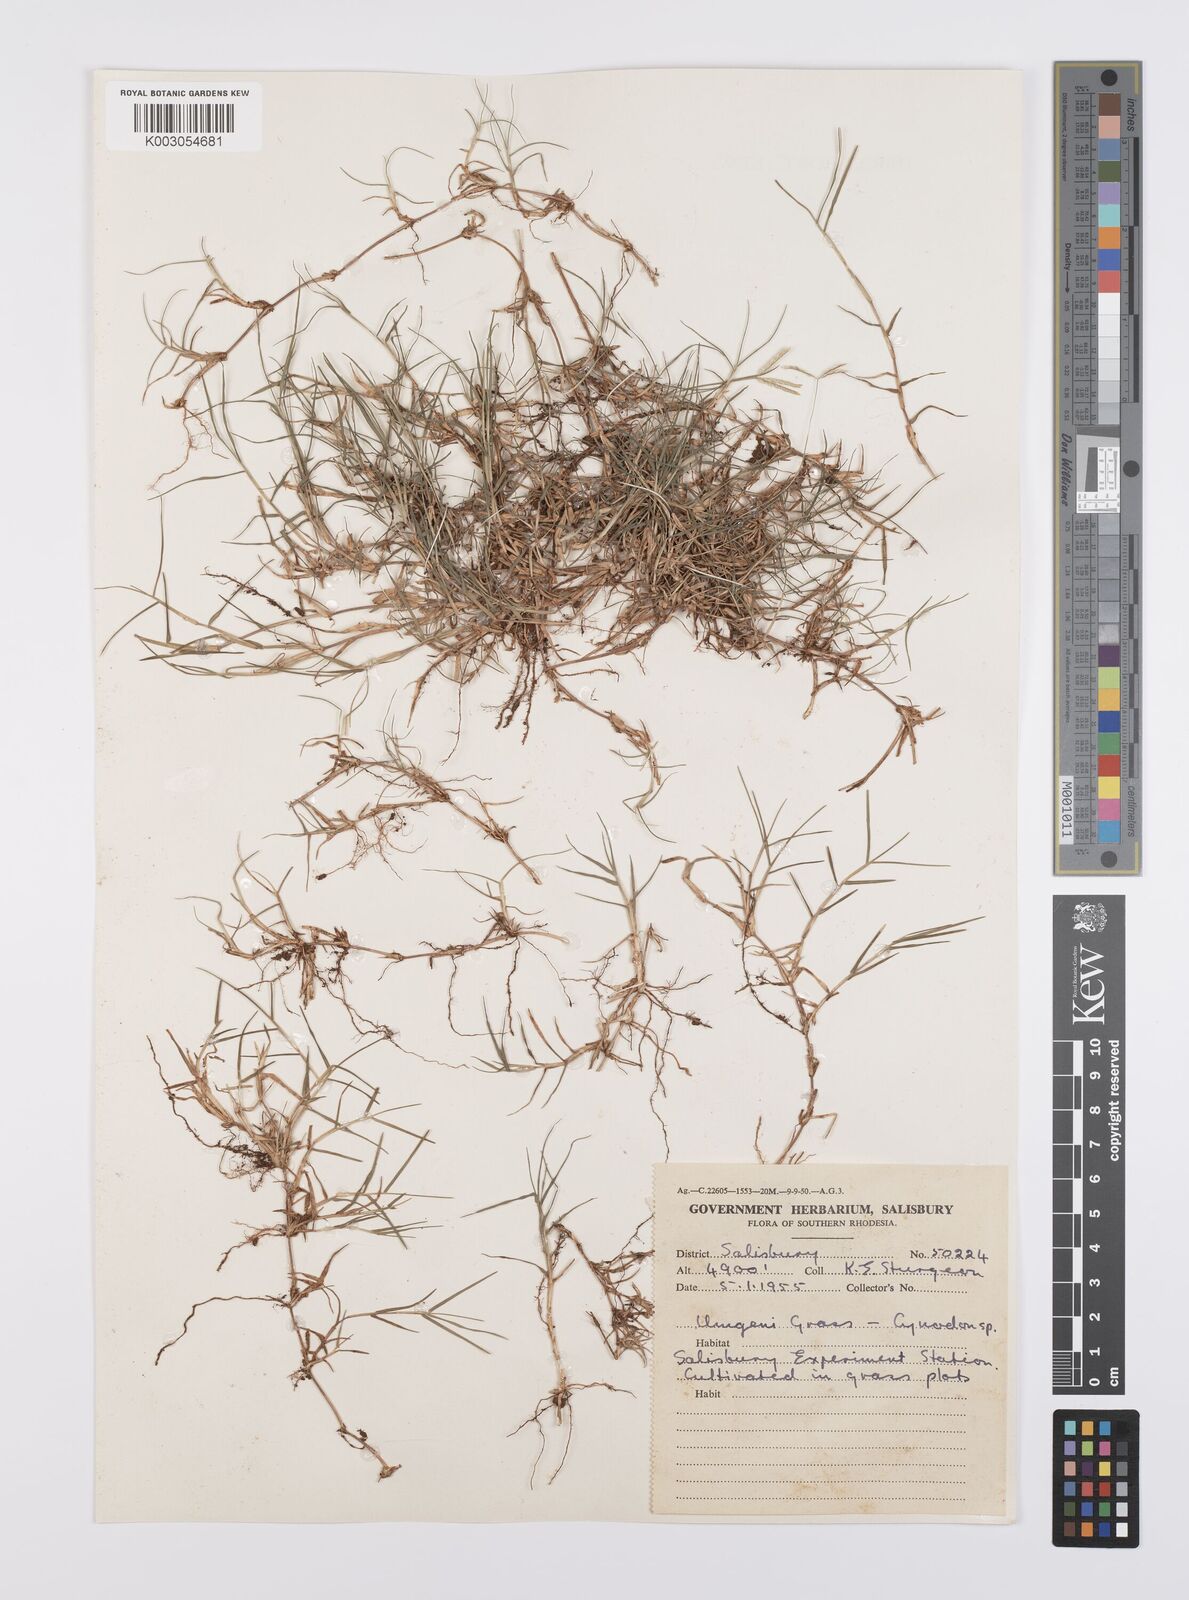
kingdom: Plantae
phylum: Tracheophyta
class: Liliopsida
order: Poales
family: Poaceae
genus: Cynodon
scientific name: Cynodon magennisii
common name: Bermudagrass
